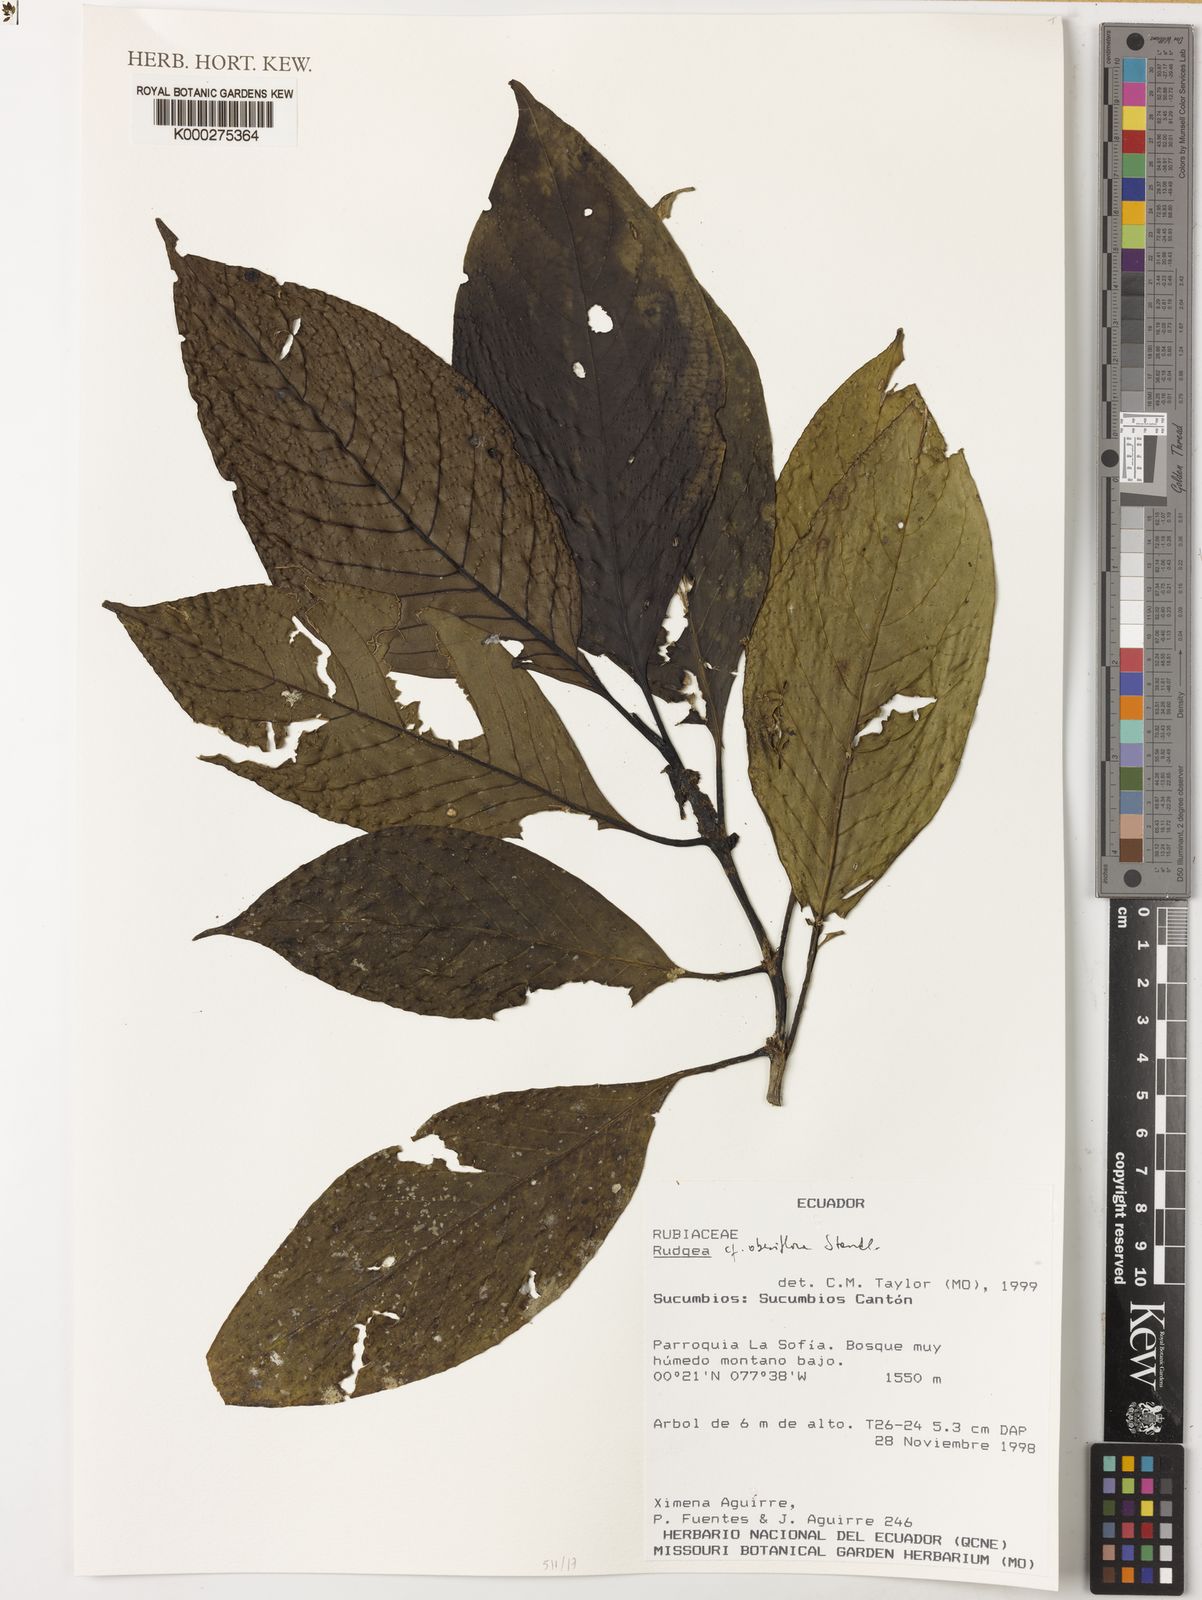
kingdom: Plantae
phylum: Tracheophyta
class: Magnoliopsida
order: Gentianales
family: Rubiaceae
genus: Rudgea
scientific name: Rudgea obesiflora
